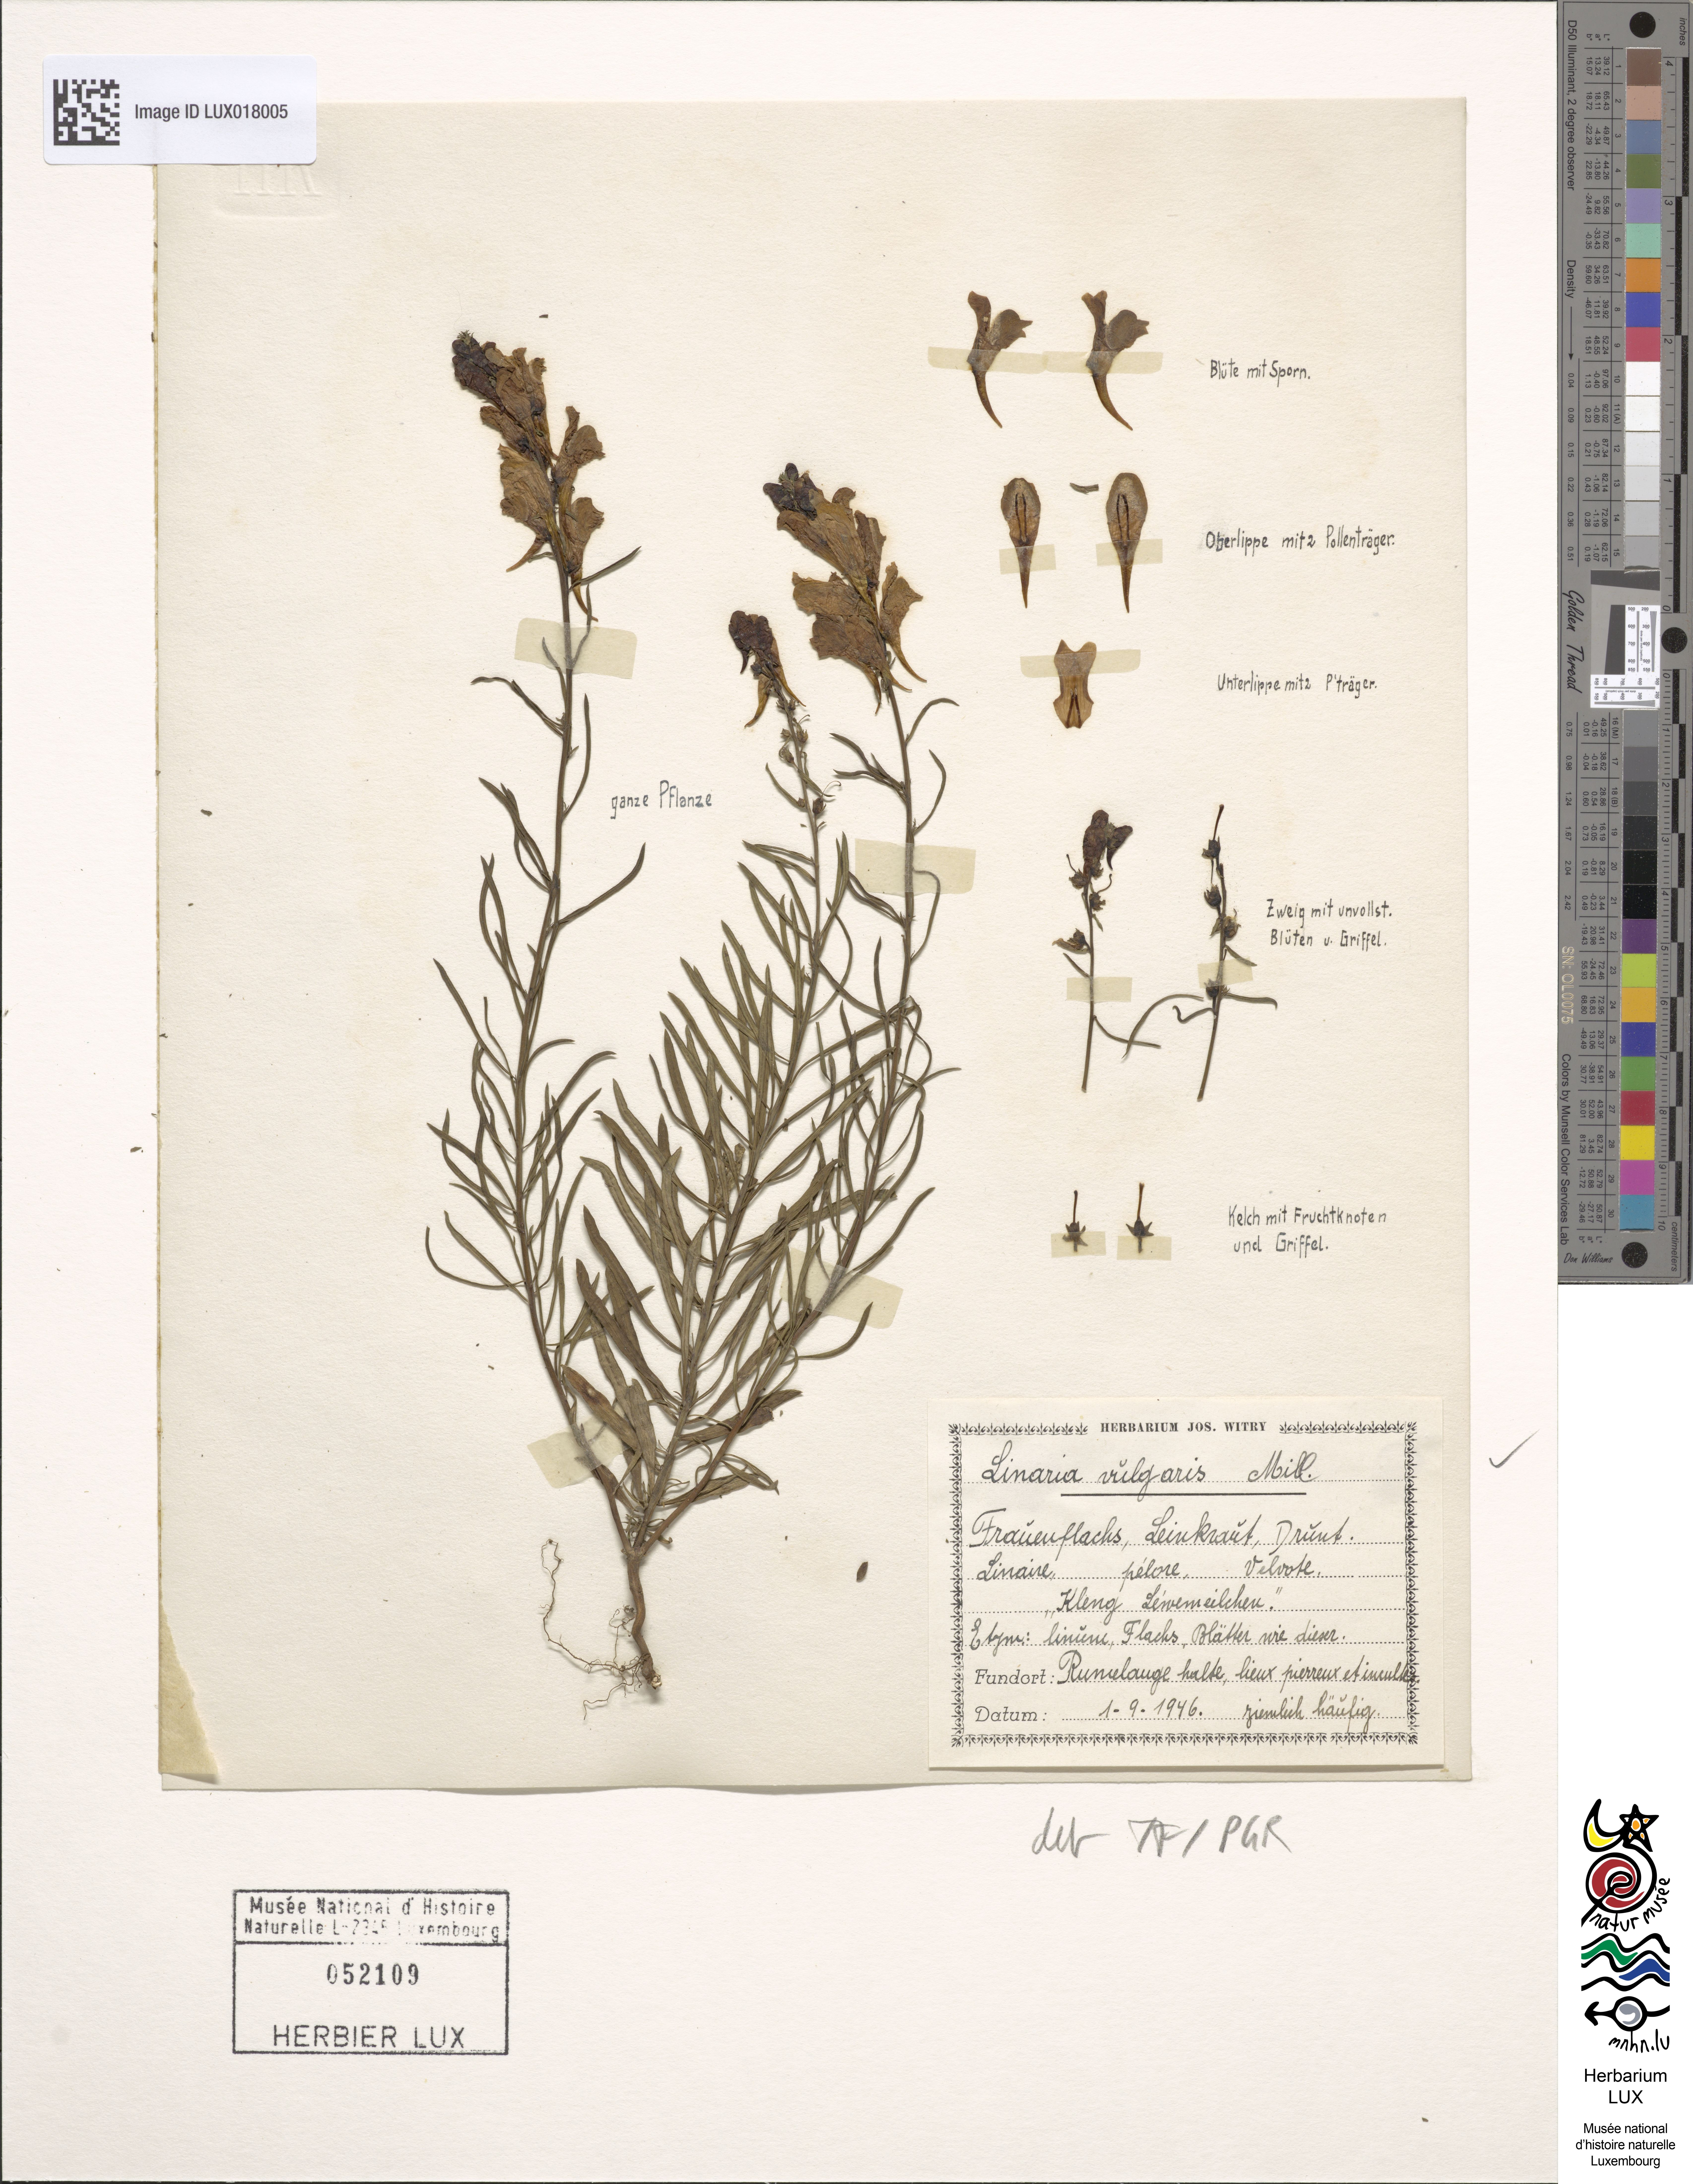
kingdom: Plantae
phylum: Tracheophyta
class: Magnoliopsida
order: Lamiales
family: Plantaginaceae
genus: Linaria
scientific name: Linaria vulgaris
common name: Butter and eggs
